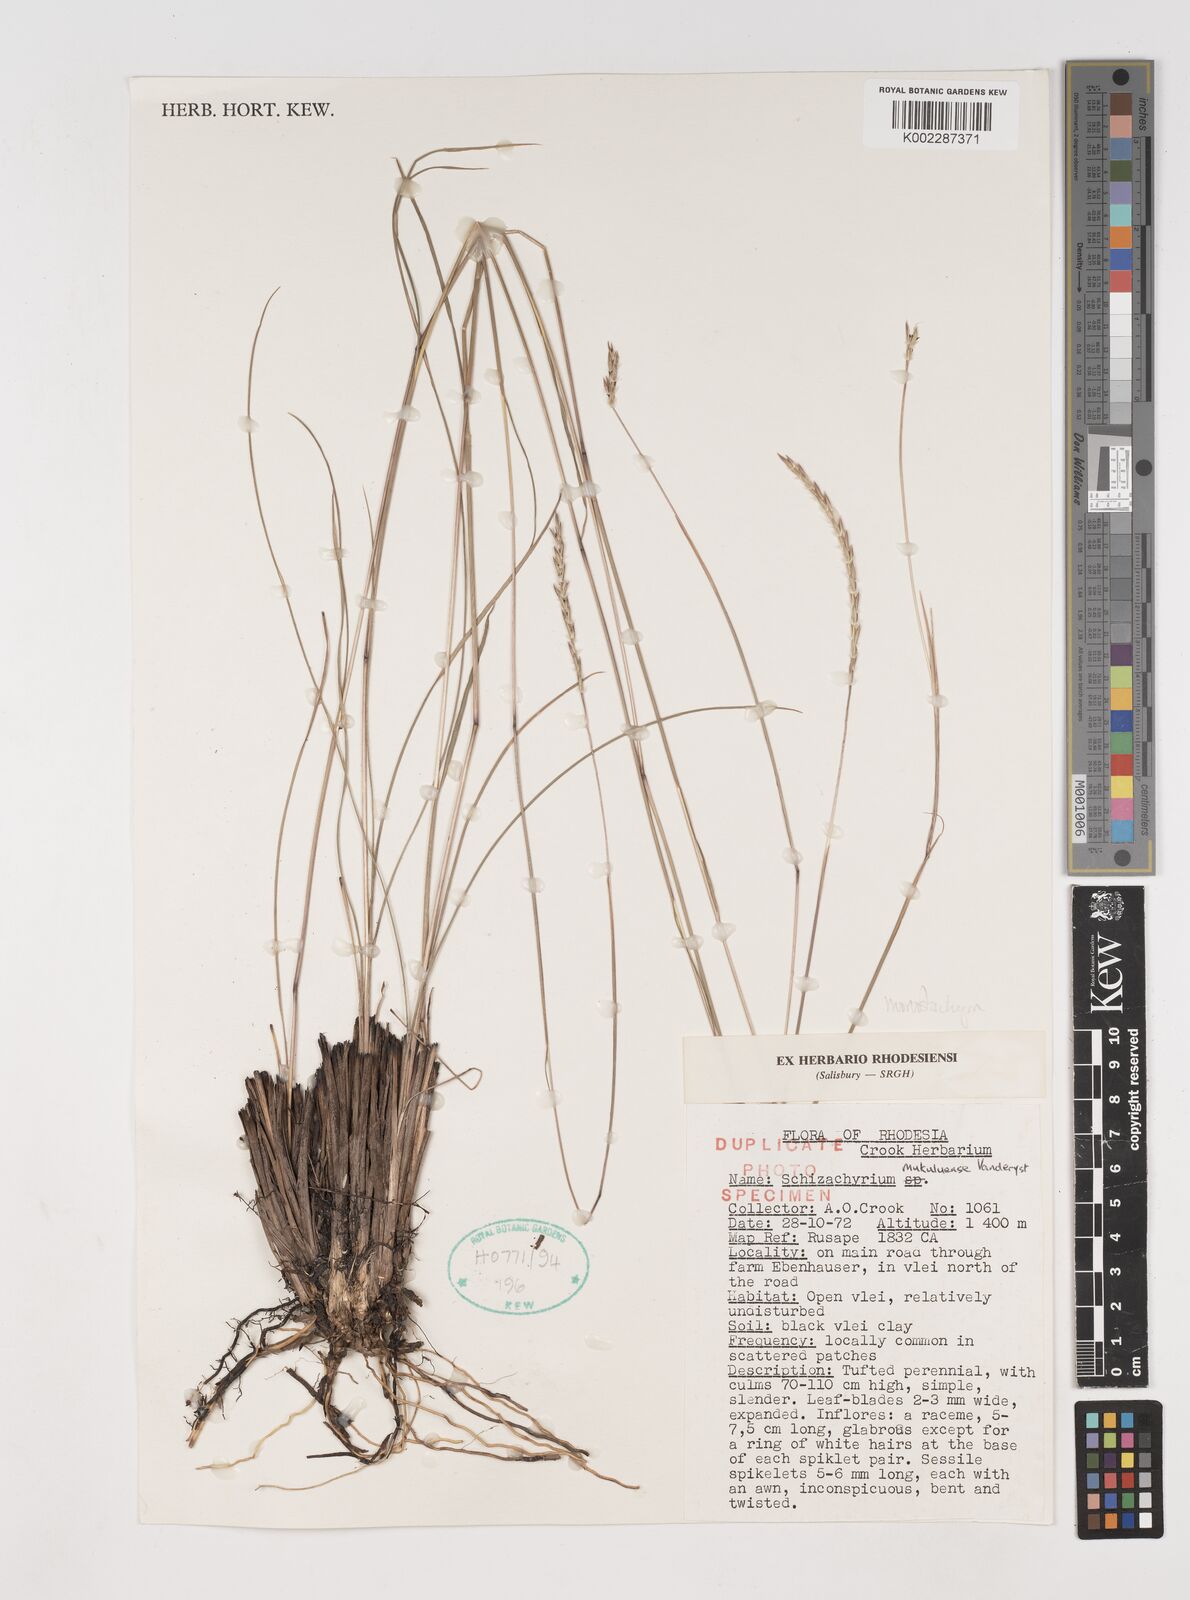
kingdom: Plantae
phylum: Tracheophyta
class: Liliopsida
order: Poales
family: Poaceae
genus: Schizachyrium
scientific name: Schizachyrium thollonii
